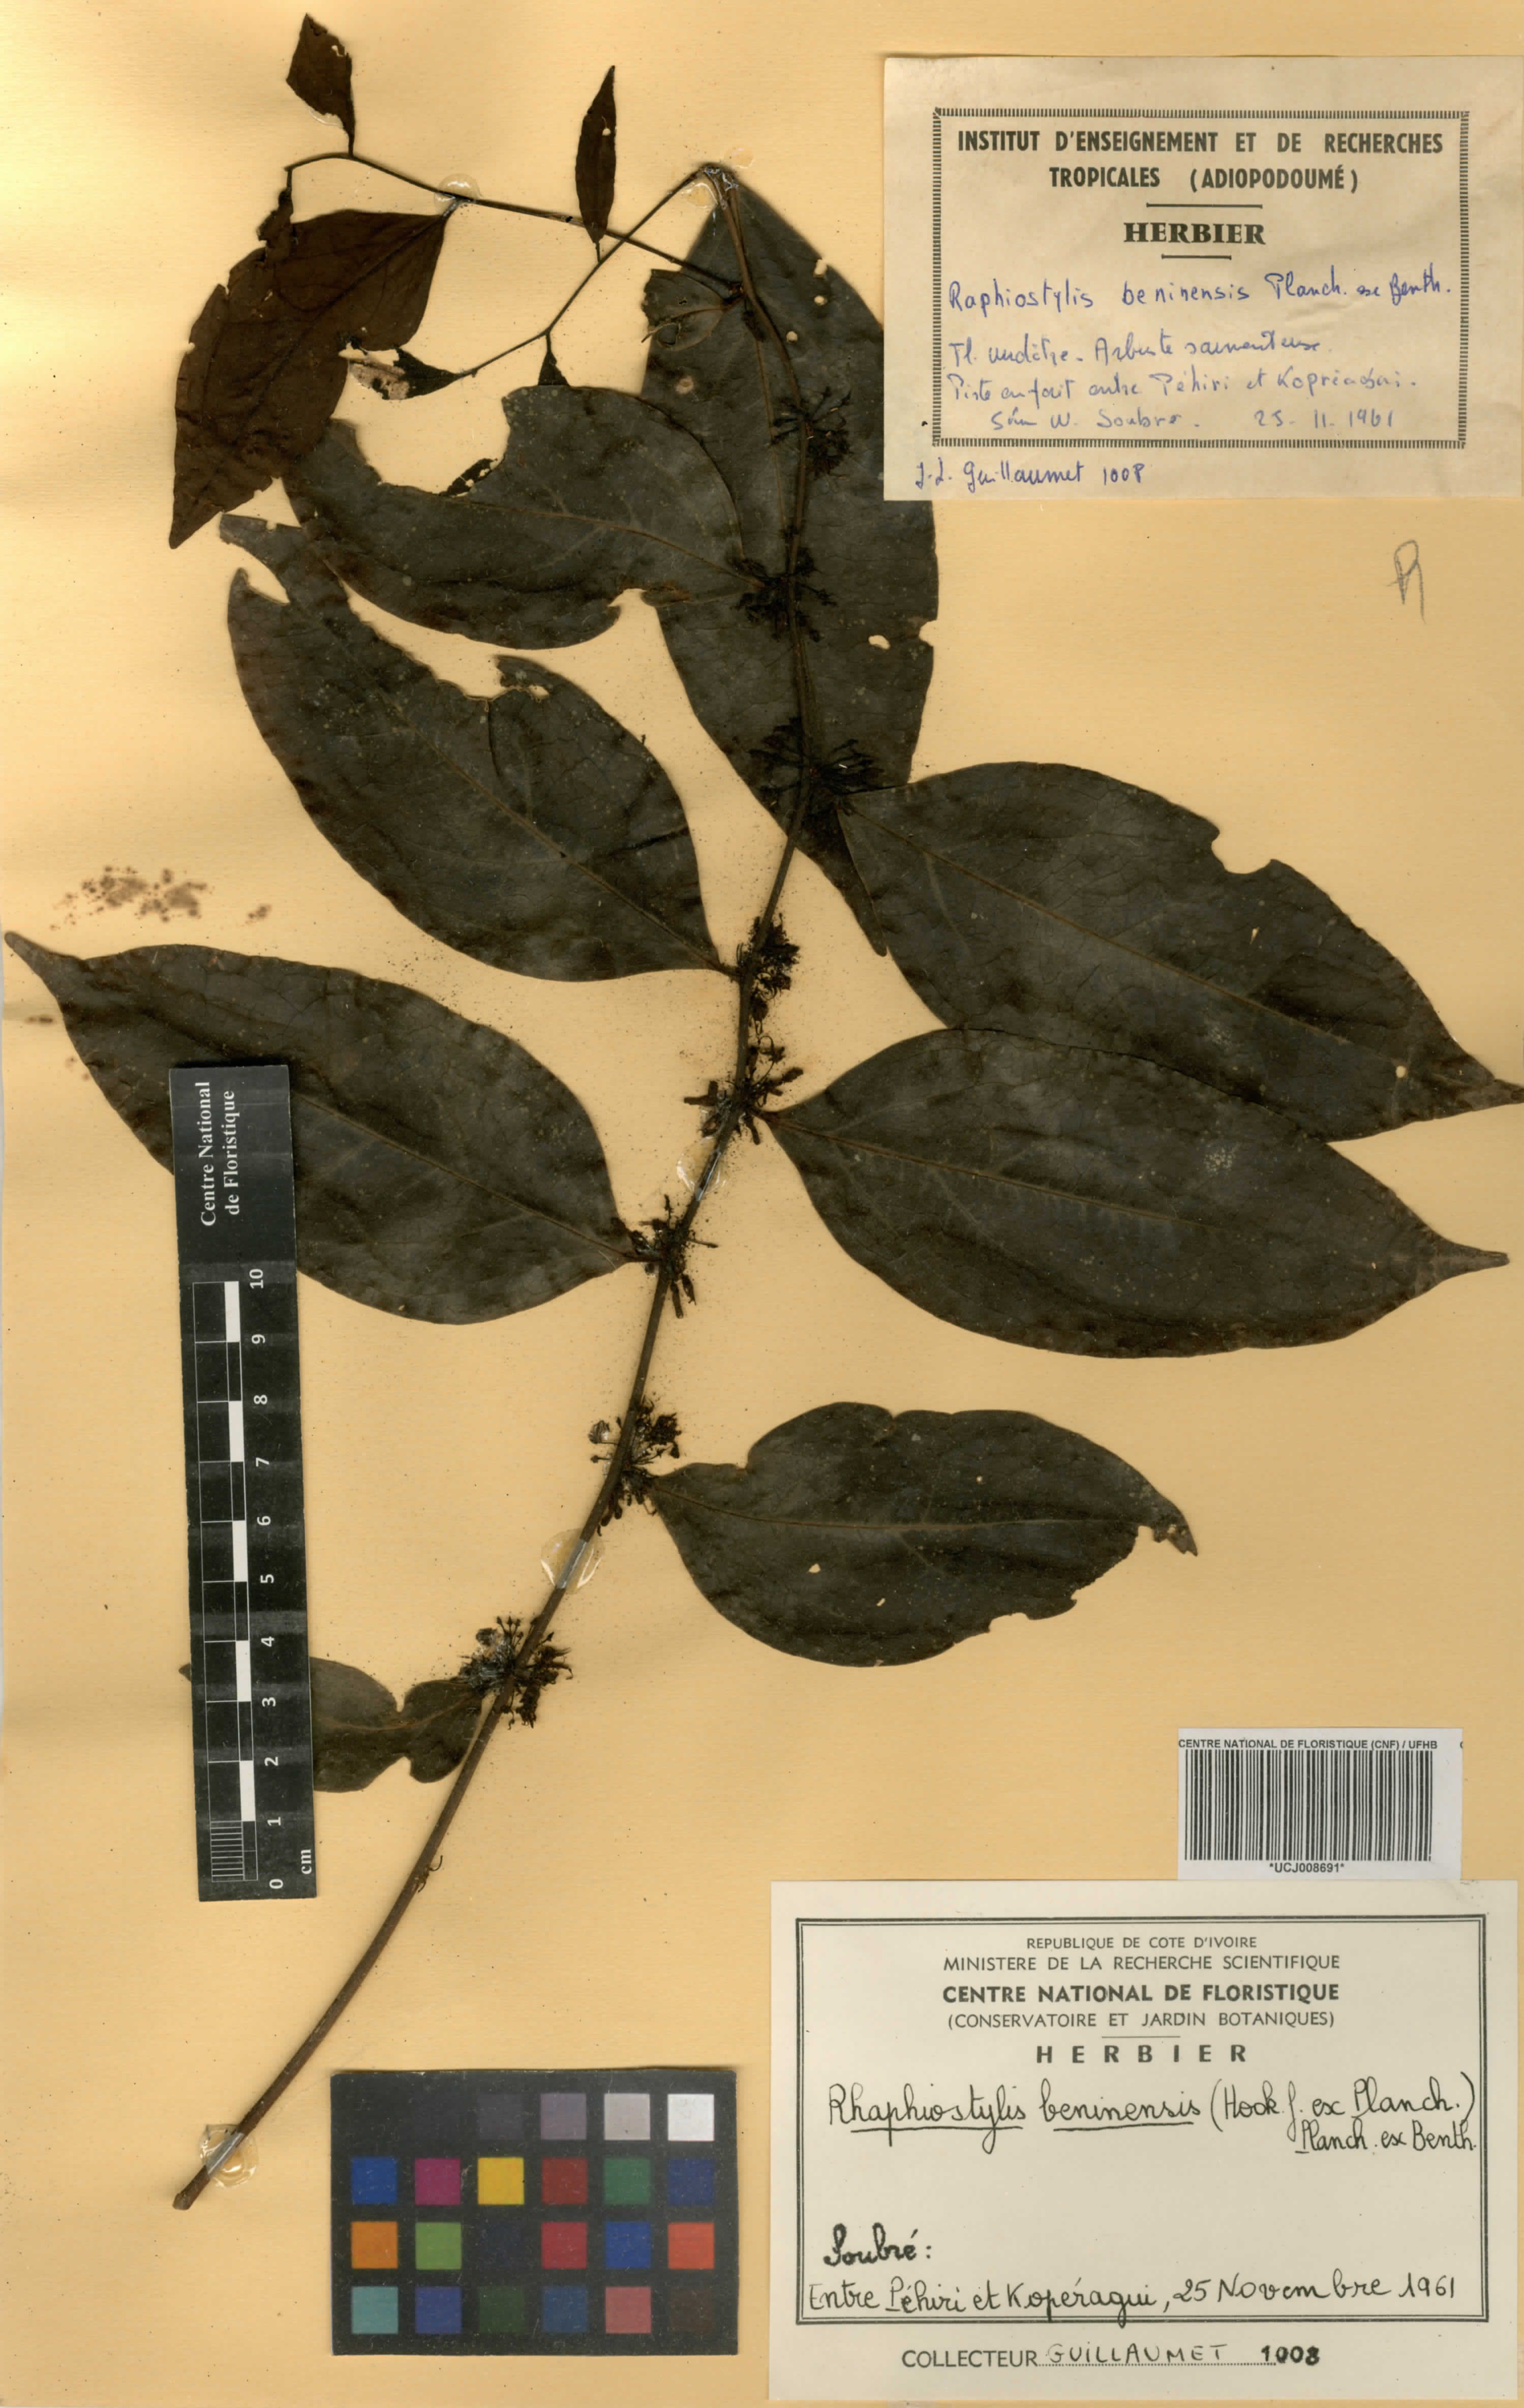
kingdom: Plantae
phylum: Tracheophyta
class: Magnoliopsida
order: Metteniusales
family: Metteniusaceae
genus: Rhaphiostylis
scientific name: Rhaphiostylis beninensis
